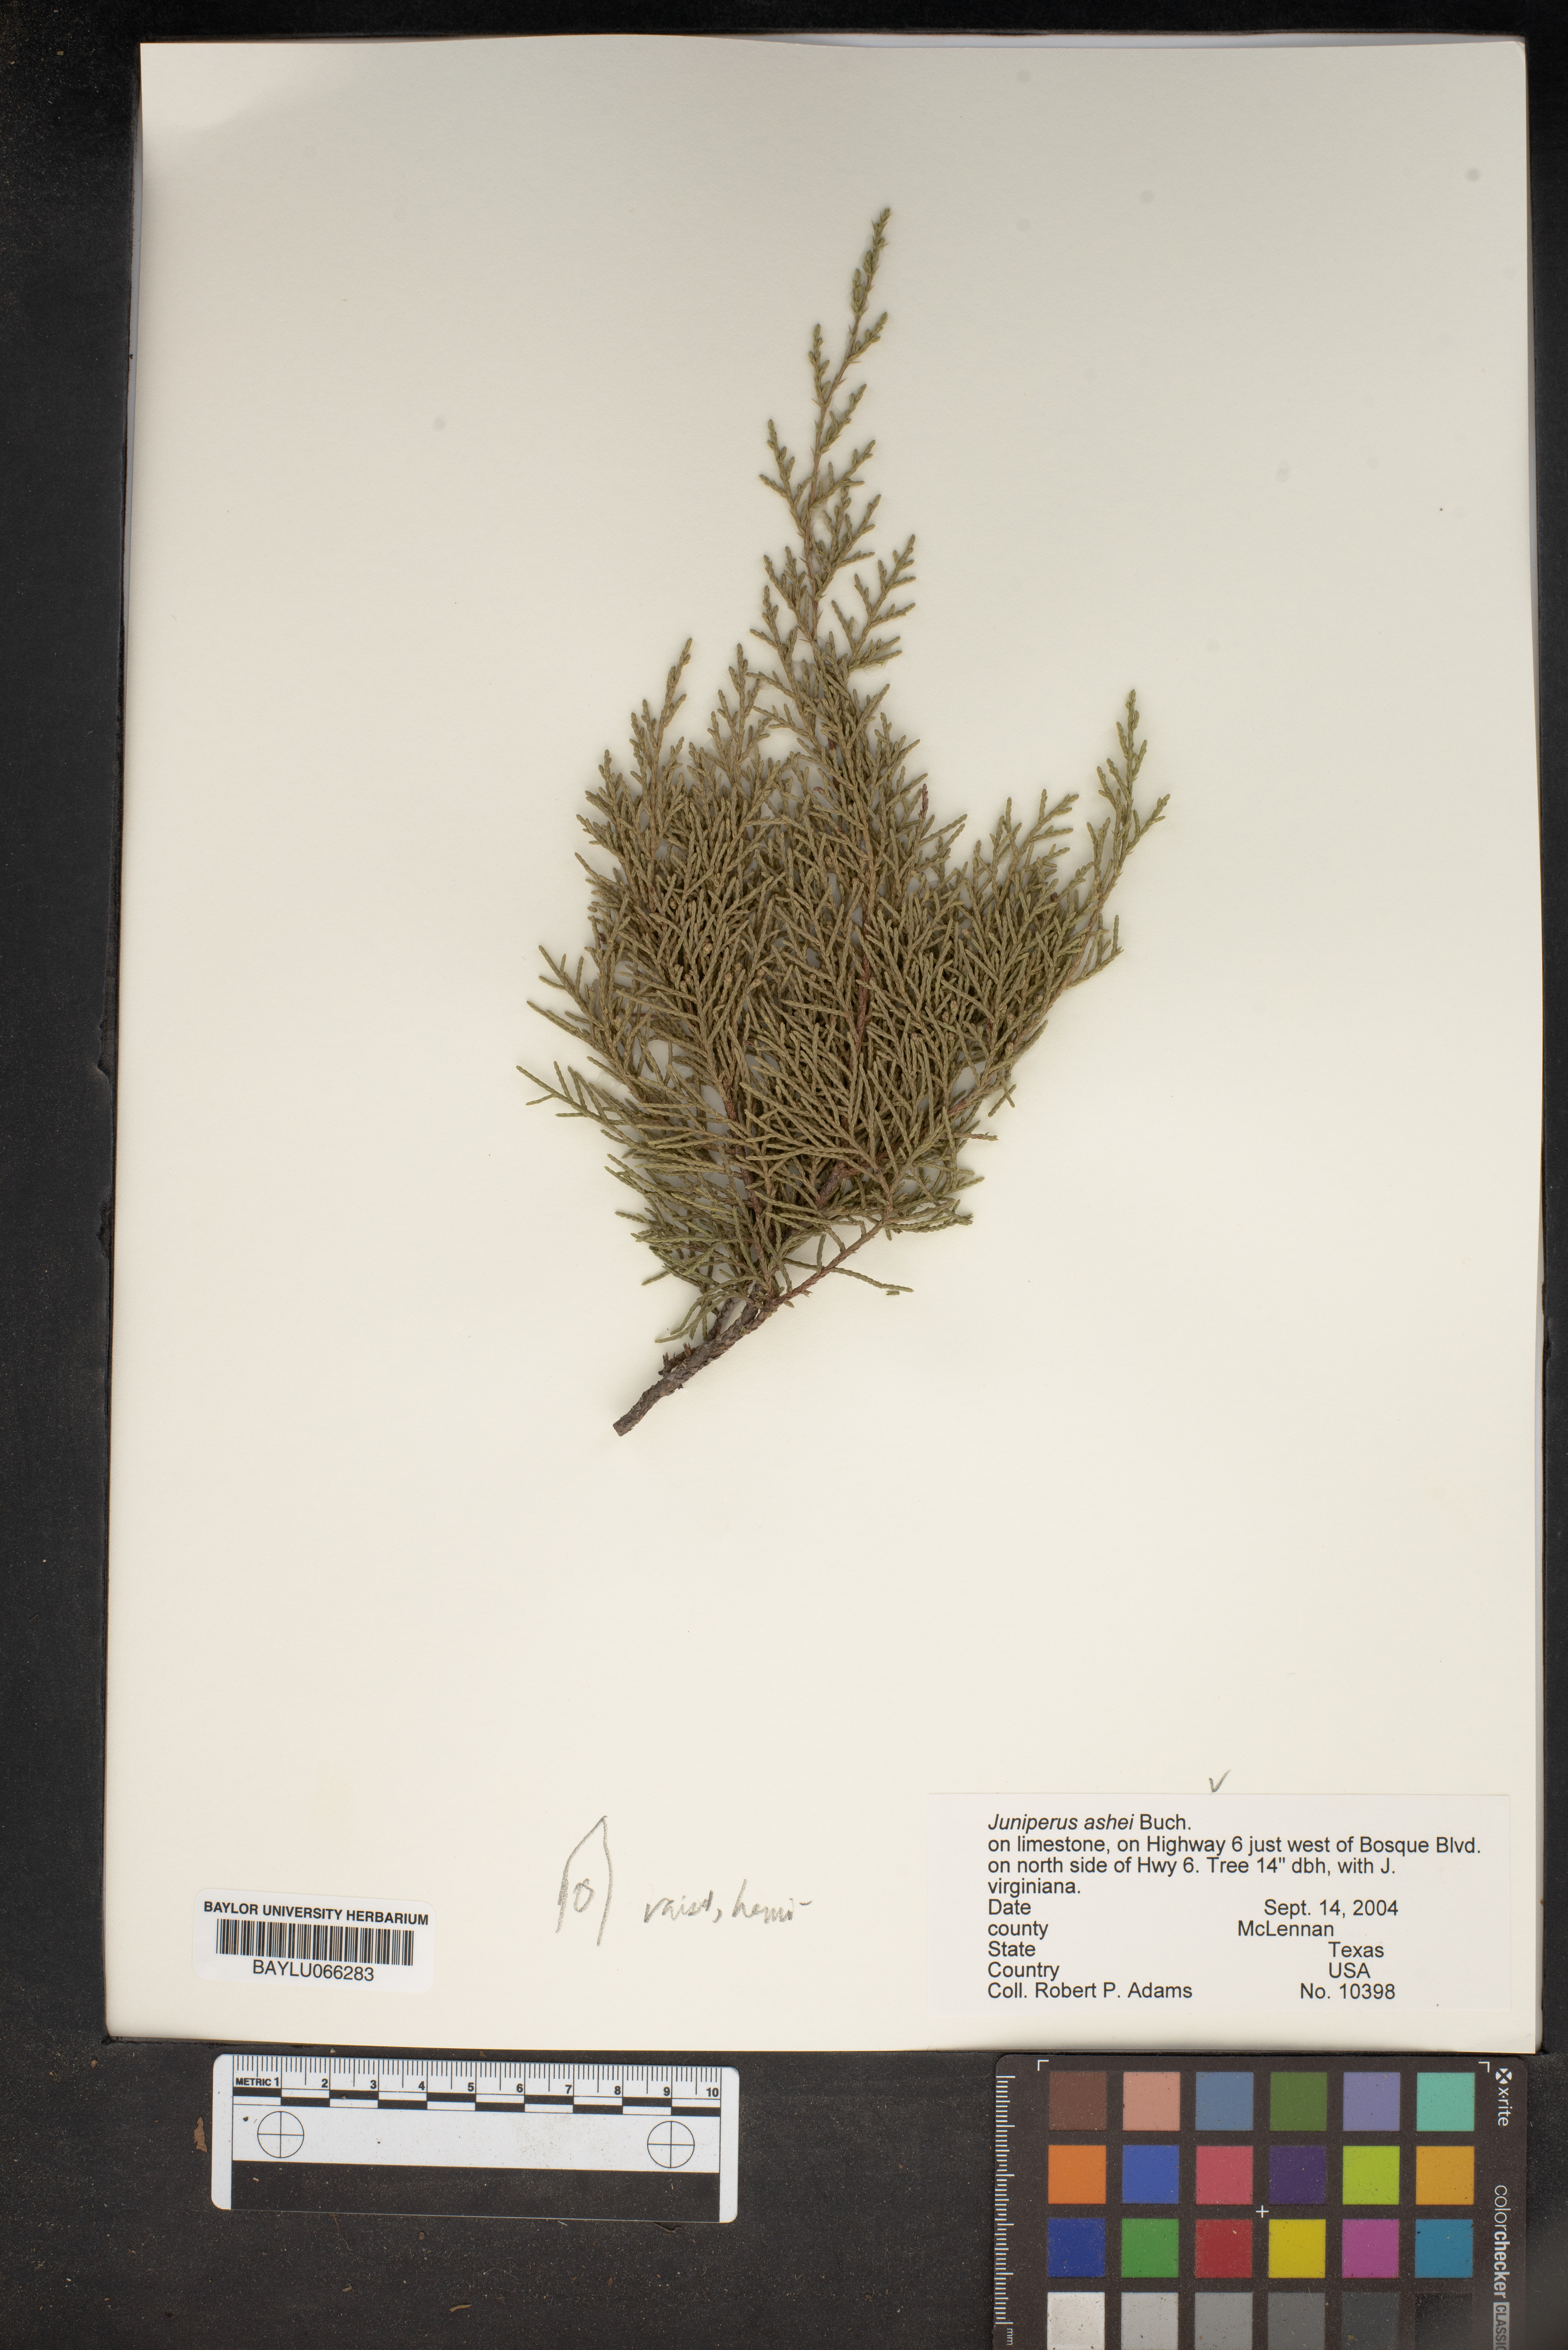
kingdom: Plantae
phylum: Tracheophyta
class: Pinopsida
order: Pinales
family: Cupressaceae
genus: Juniperus
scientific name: Juniperus ashei
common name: Mexican juniper
